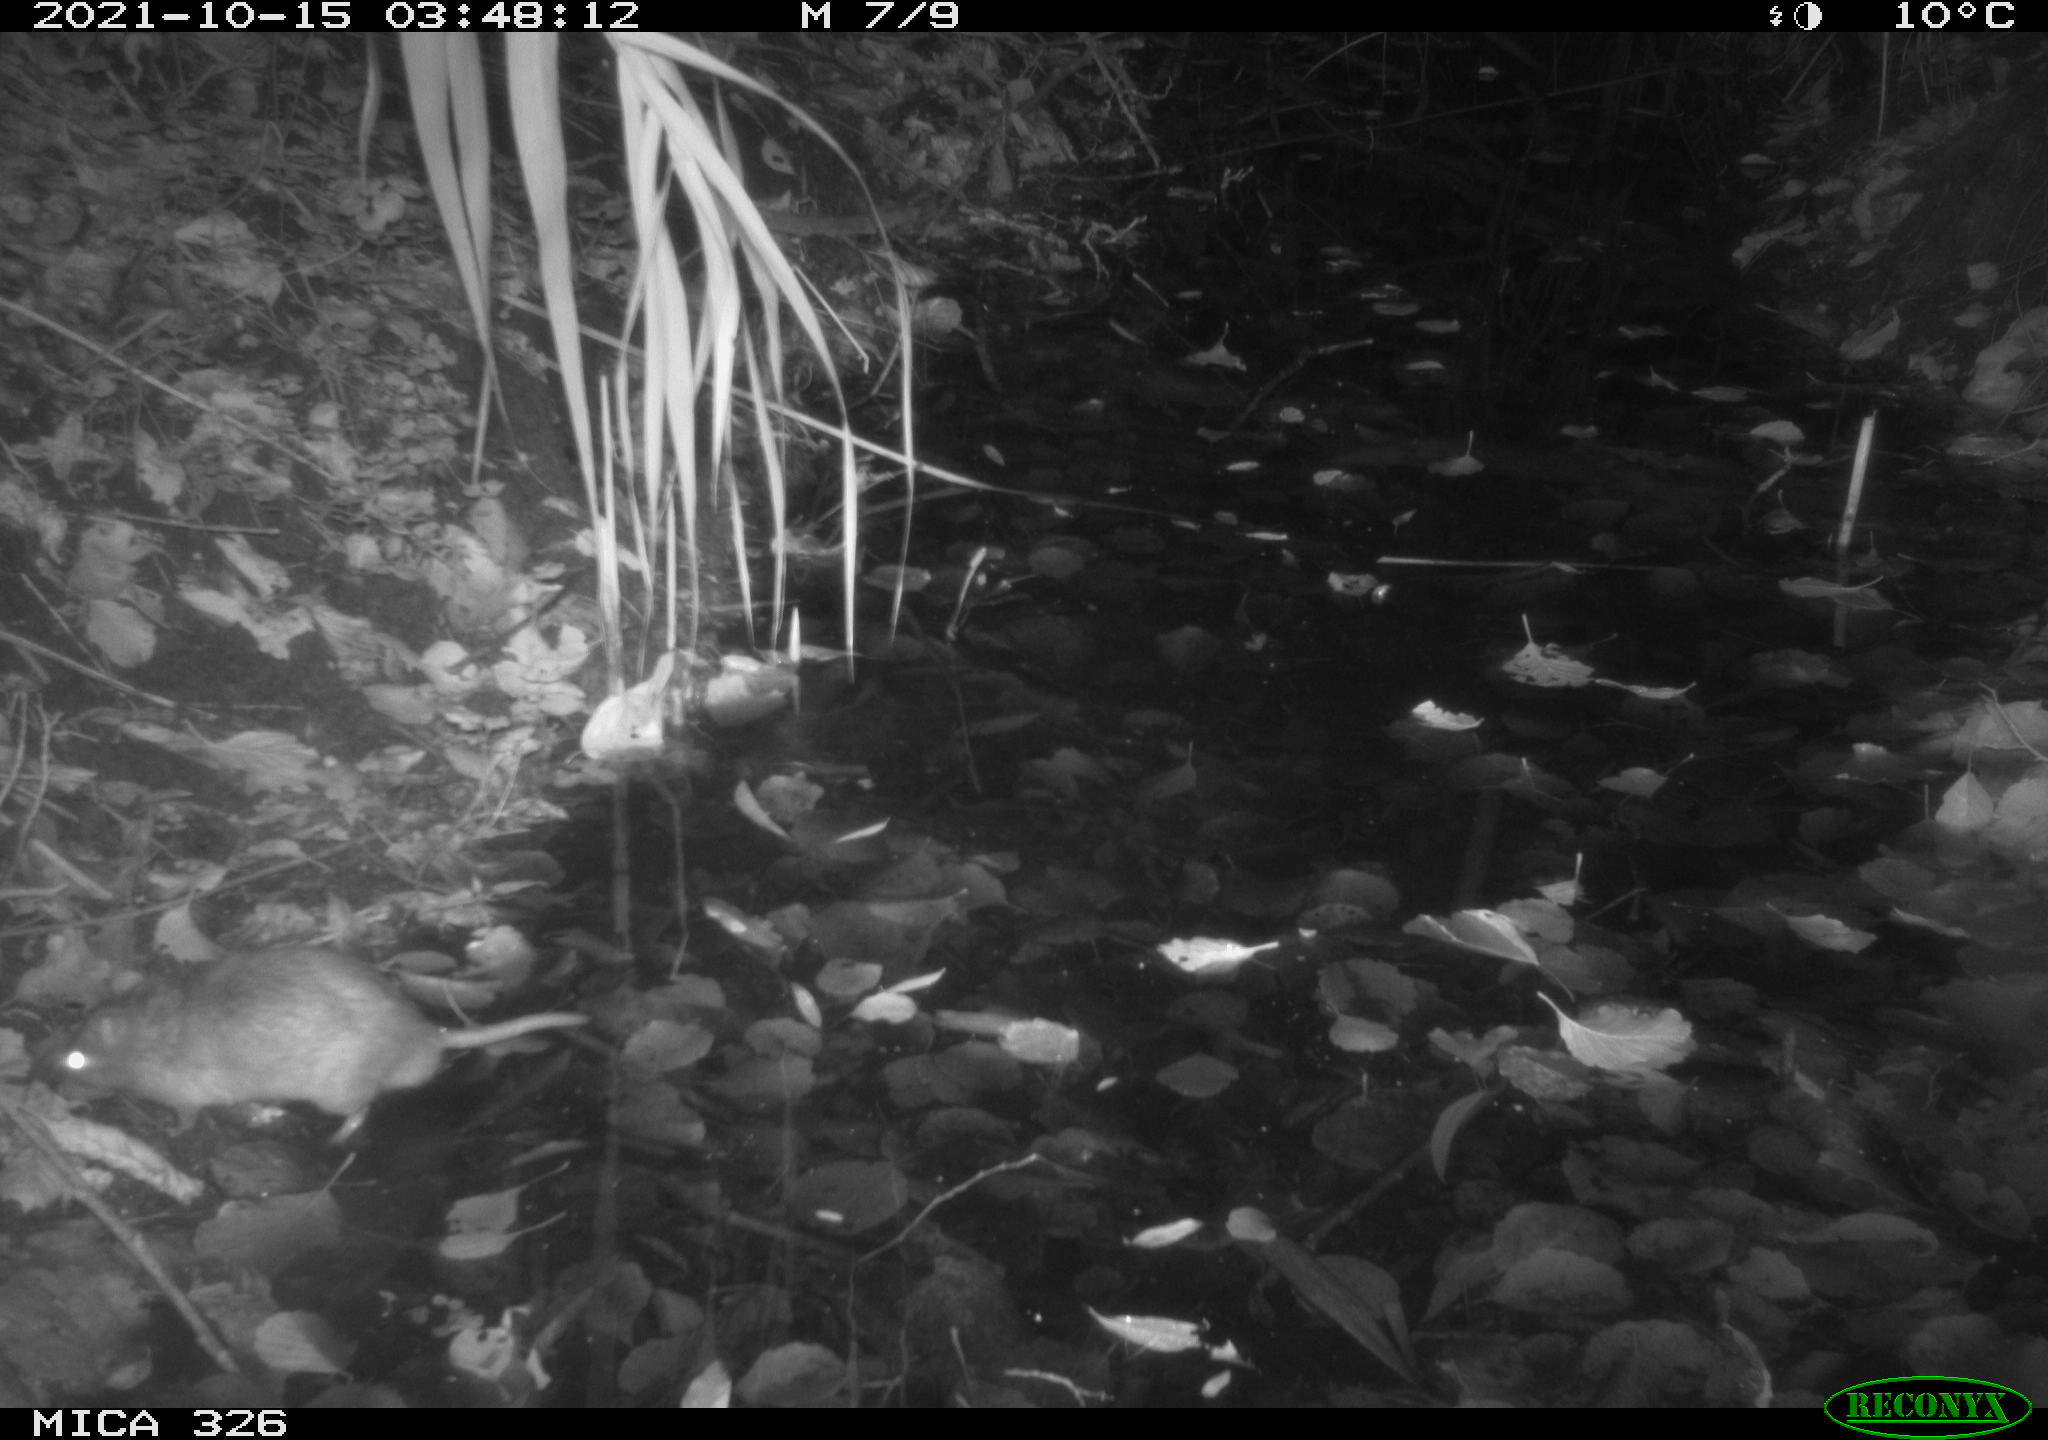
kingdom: Animalia
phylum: Chordata
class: Mammalia
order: Rodentia
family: Muridae
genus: Rattus
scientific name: Rattus norvegicus
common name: Brown rat
